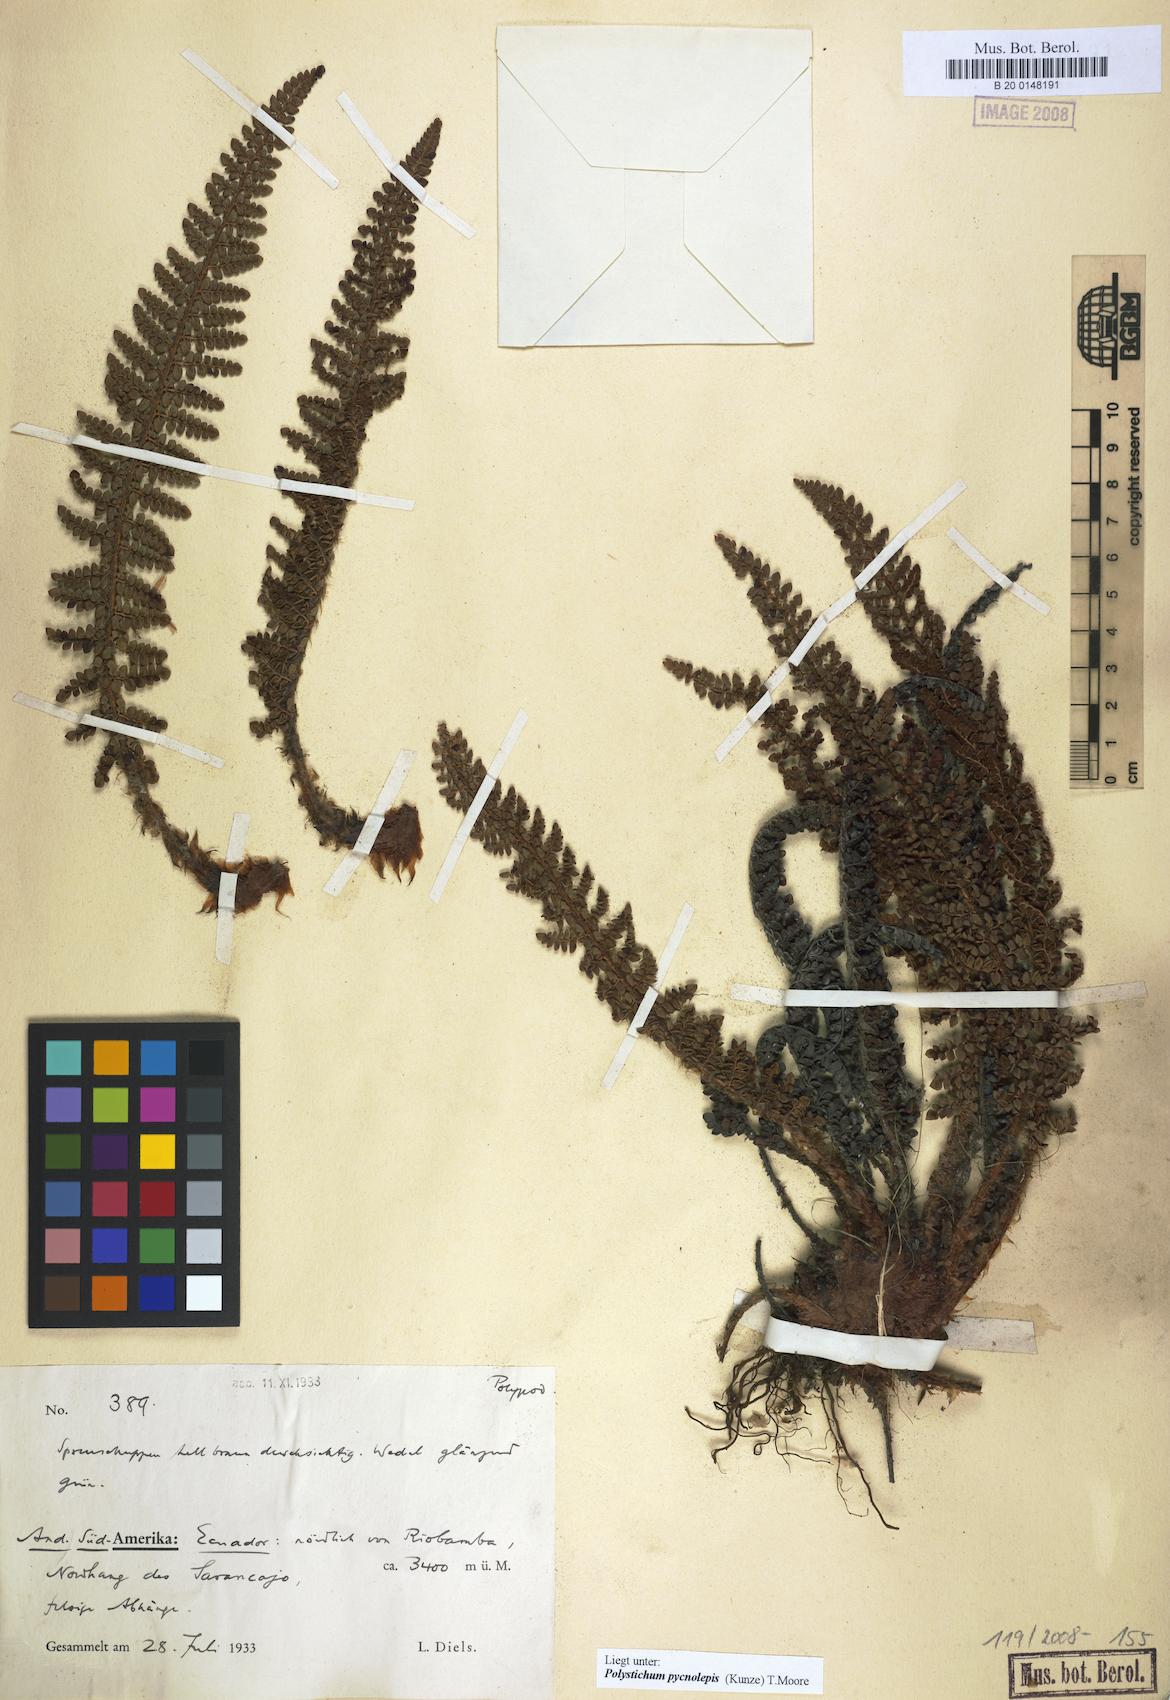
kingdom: Plantae
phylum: Tracheophyta
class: Polypodiopsida
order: Polypodiales
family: Dryopteridaceae
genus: Polystichum
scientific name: Polystichum pycnolepis
